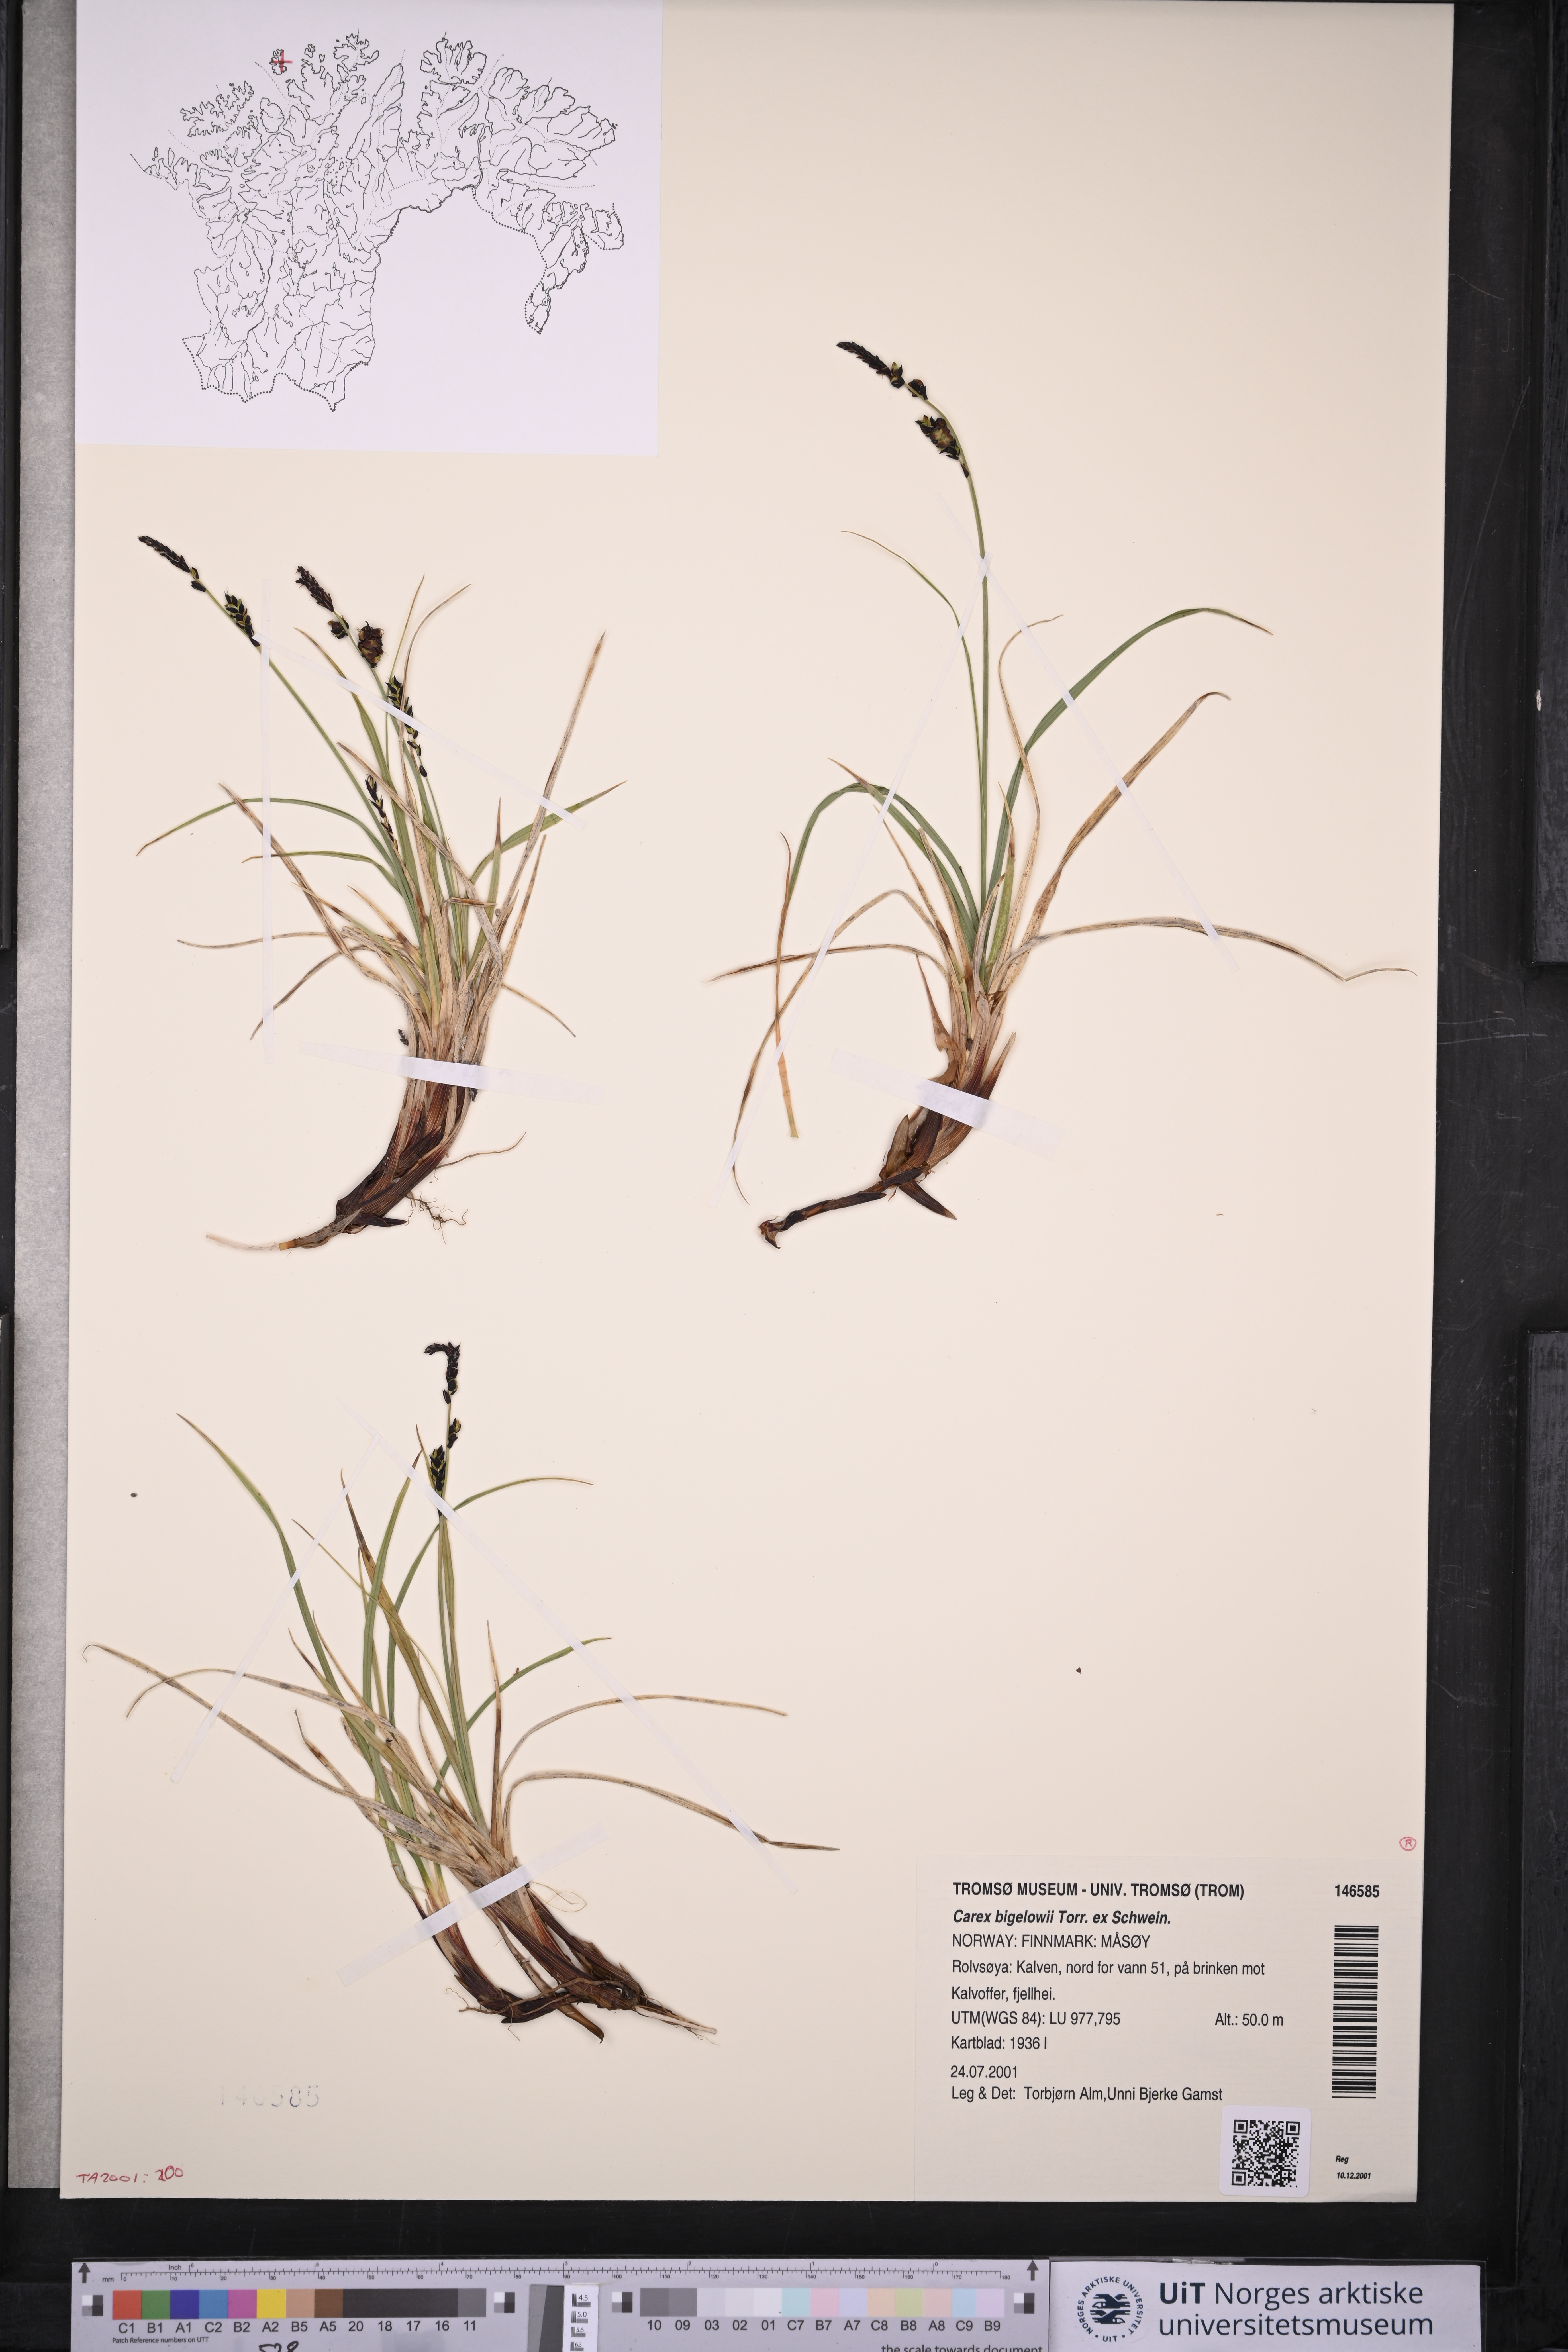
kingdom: Plantae
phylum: Tracheophyta
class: Liliopsida
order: Poales
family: Cyperaceae
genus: Carex
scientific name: Carex bigelowii
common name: Stiff sedge
